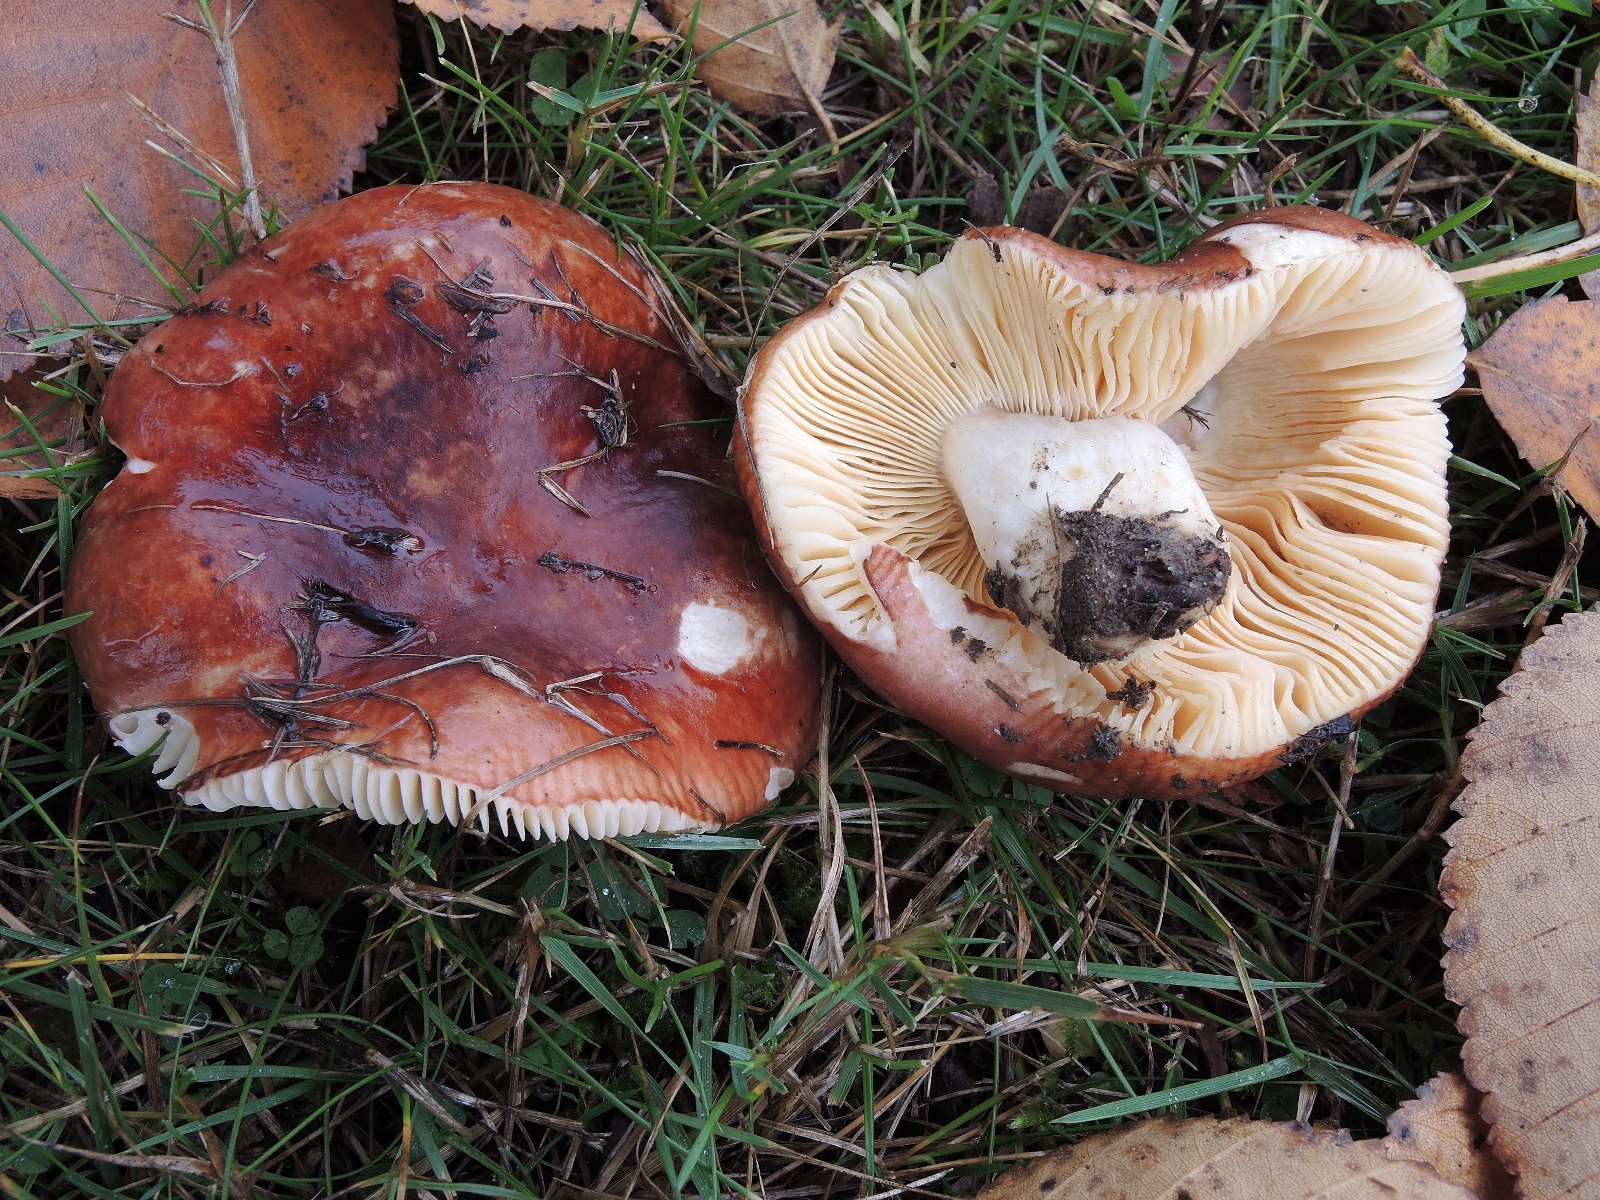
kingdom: Fungi
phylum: Basidiomycota
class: Agaricomycetes
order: Russulales
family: Russulaceae
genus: Russula
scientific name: Russula
